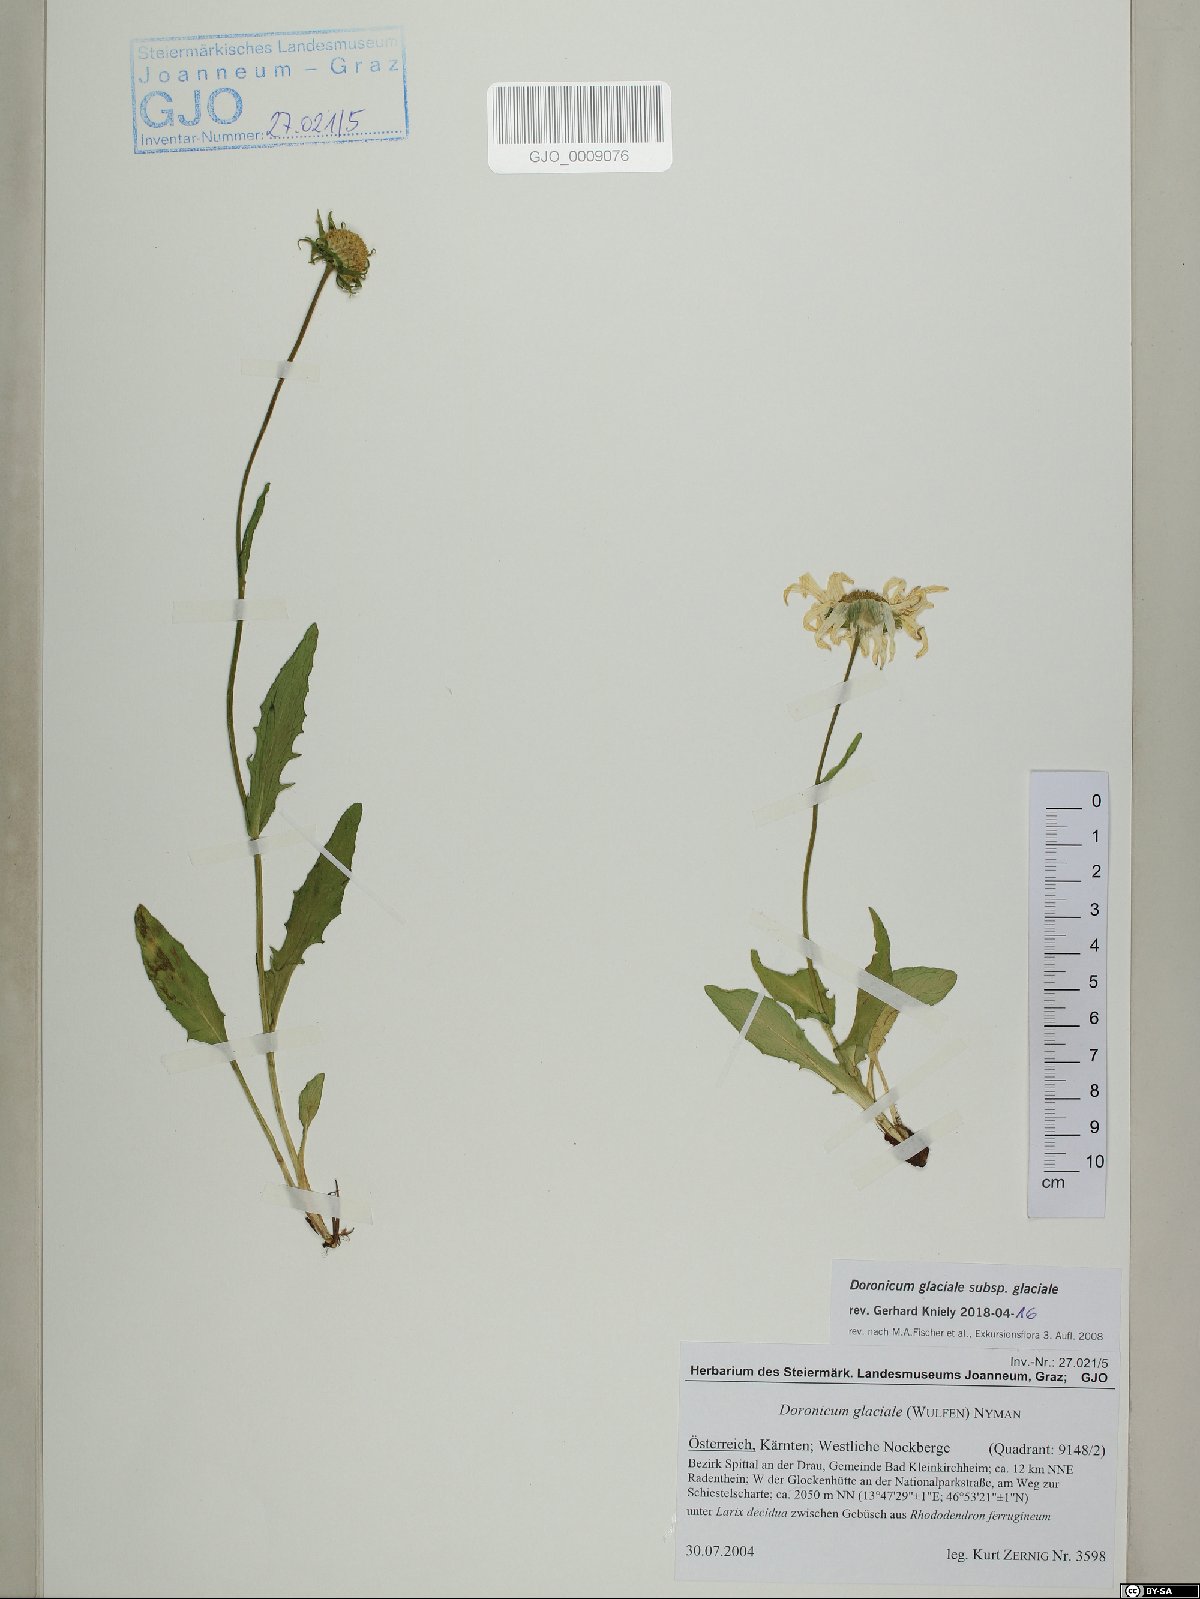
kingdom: Plantae
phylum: Tracheophyta
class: Magnoliopsida
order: Asterales
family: Asteraceae
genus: Doronicum
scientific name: Doronicum glaciale
